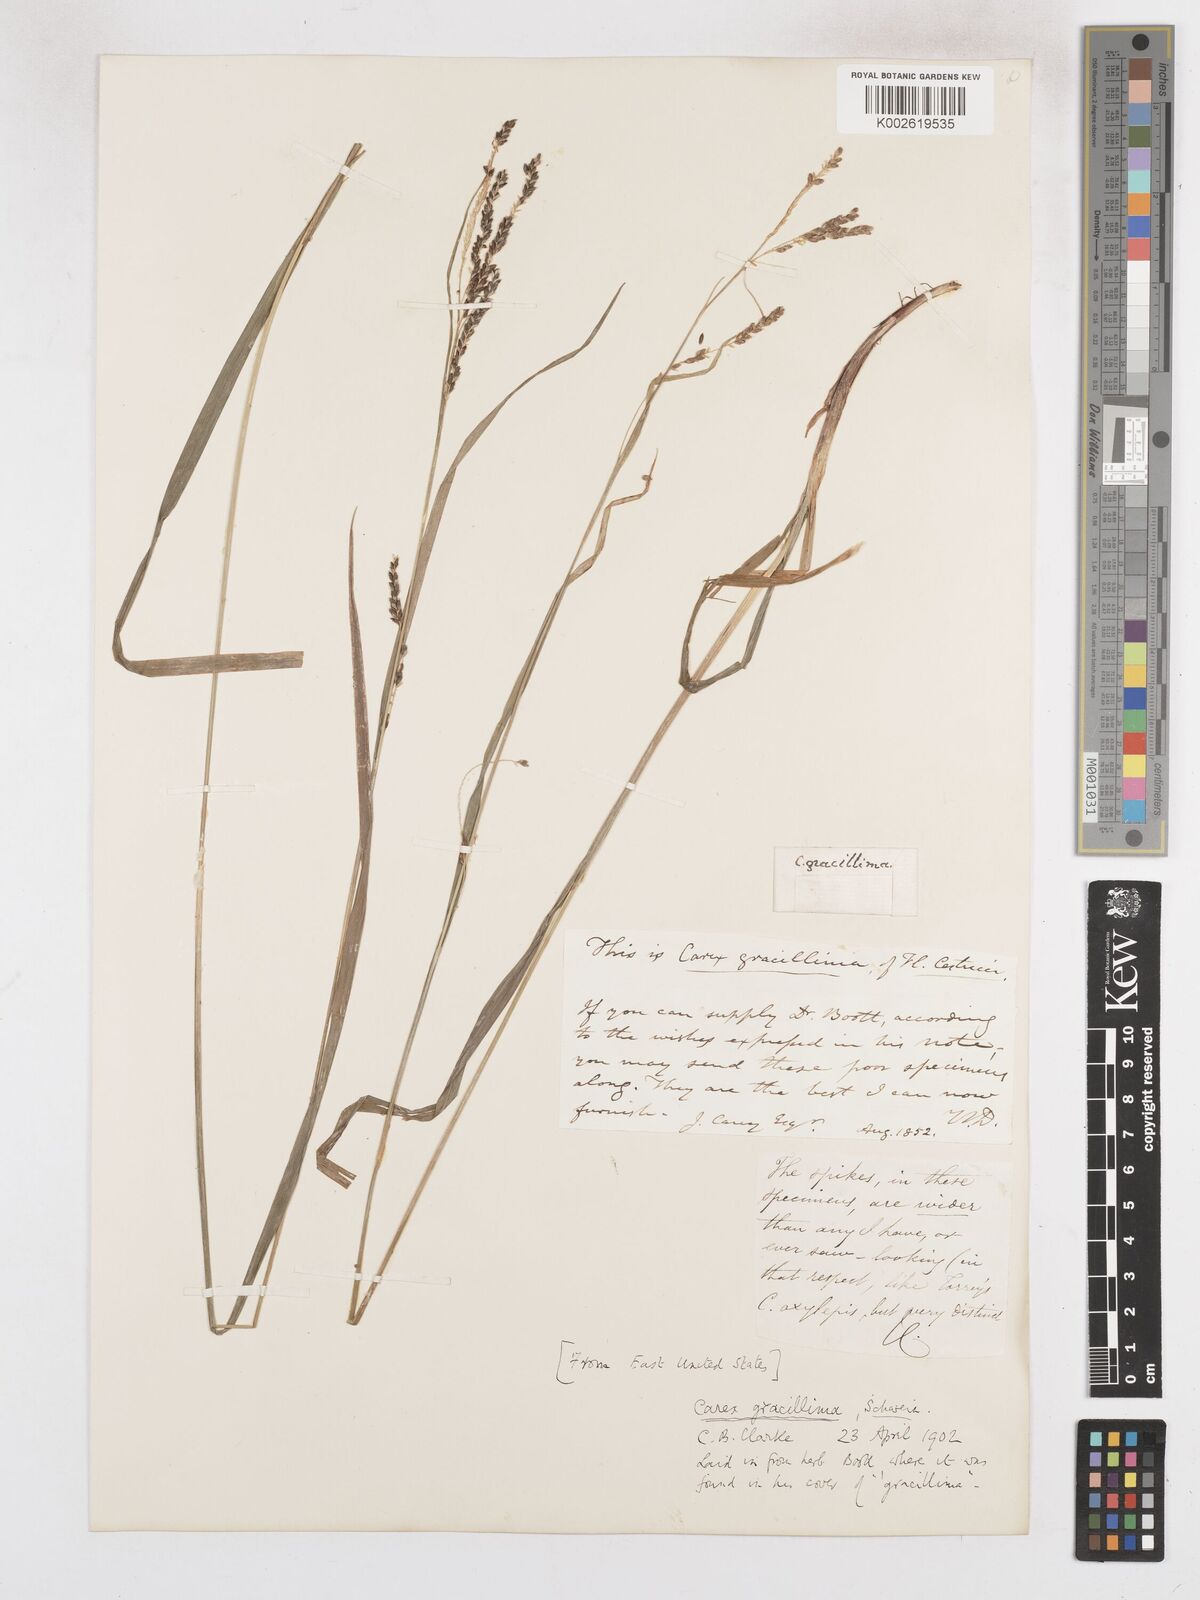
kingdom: Plantae
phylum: Tracheophyta
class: Liliopsida
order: Poales
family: Cyperaceae
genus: Carex
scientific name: Carex gracillima
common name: Graceful sedge
